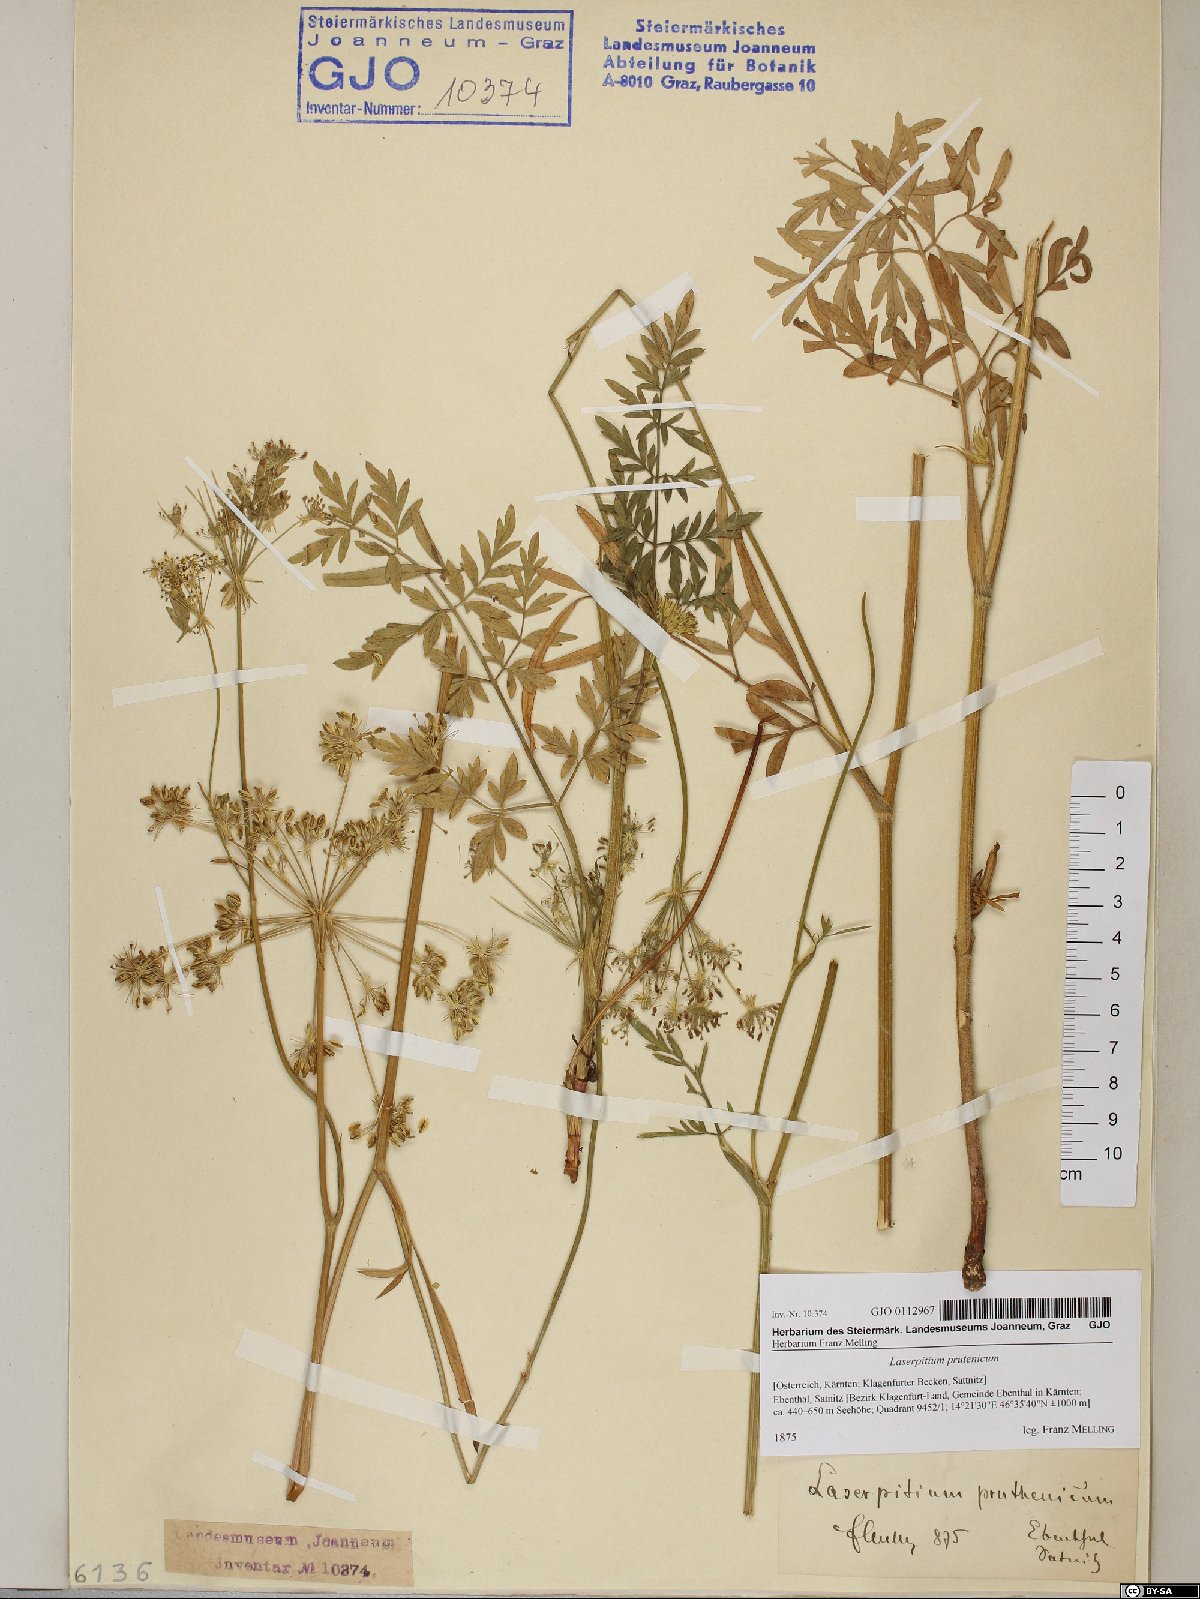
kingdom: Plantae
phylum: Tracheophyta
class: Magnoliopsida
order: Apiales
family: Apiaceae
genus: Silphiodaucus
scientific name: Silphiodaucus prutenicus
